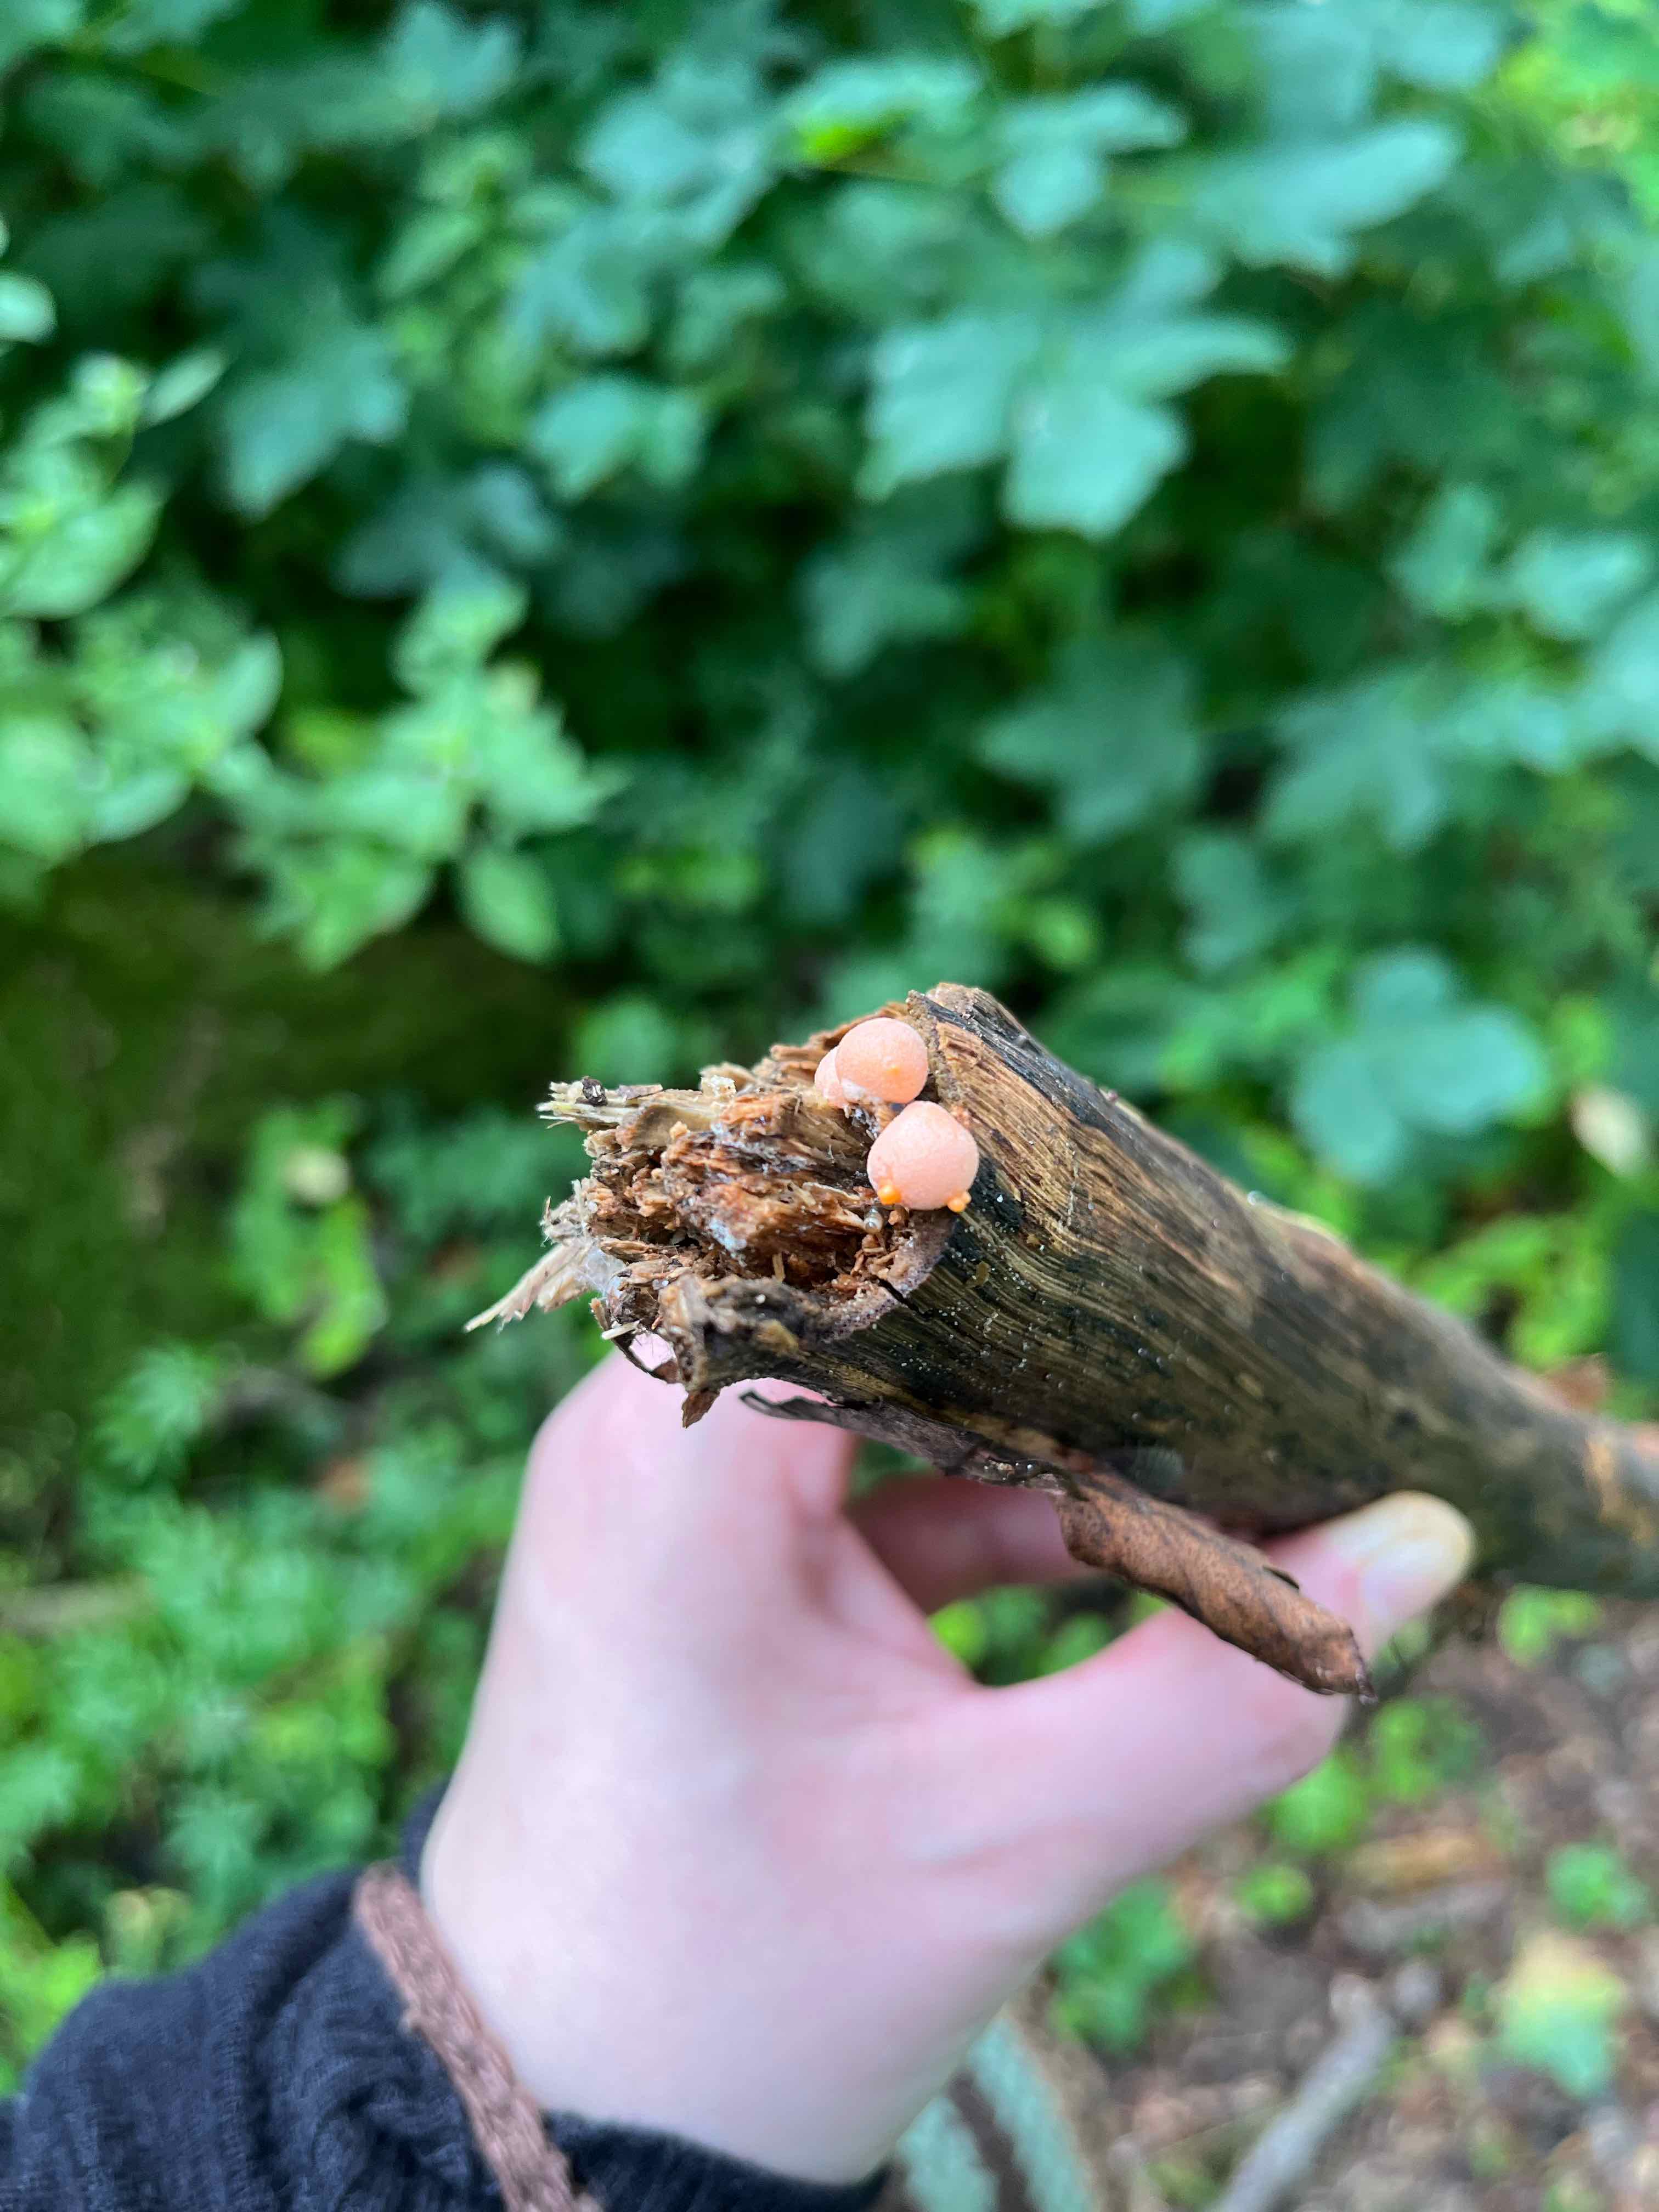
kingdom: Protozoa
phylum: Mycetozoa
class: Myxomycetes
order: Cribrariales
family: Tubiferaceae
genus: Lycogala
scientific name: Lycogala epidendrum
